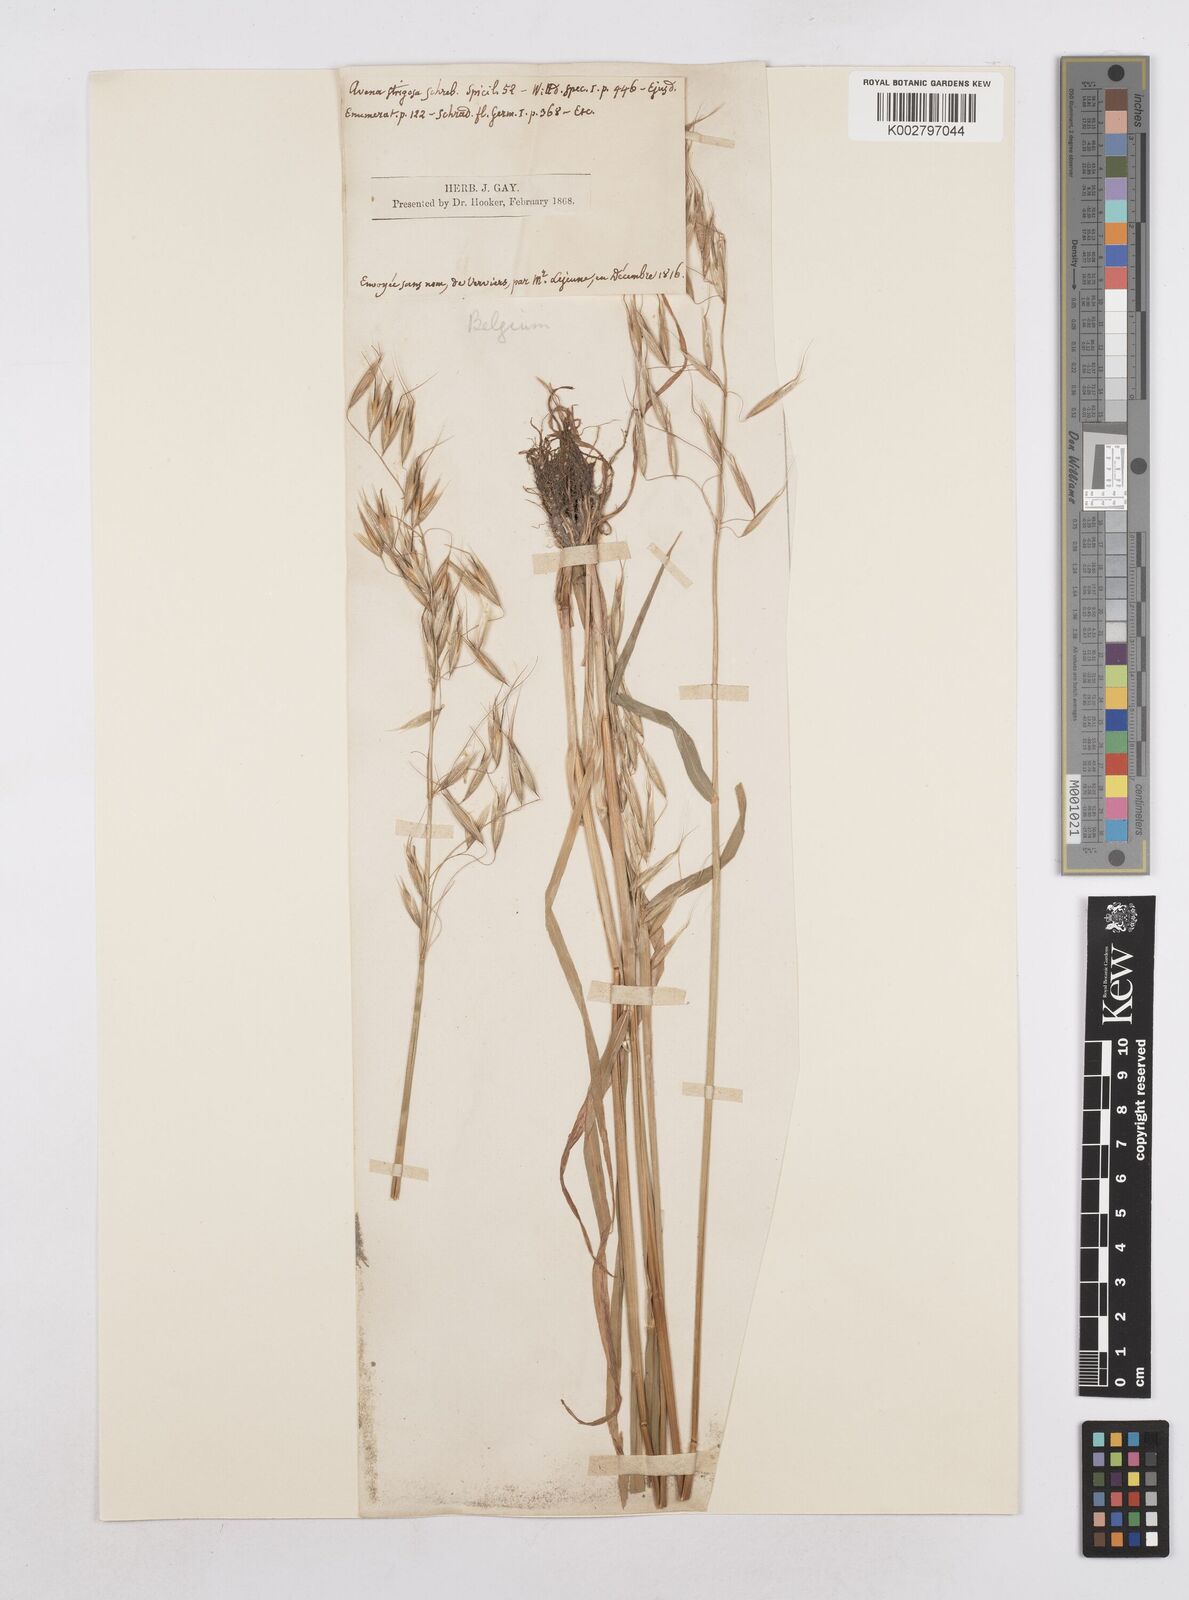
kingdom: Plantae
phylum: Tracheophyta
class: Liliopsida
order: Poales
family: Poaceae
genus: Avena
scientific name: Avena strigosa
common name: Bristle oat
